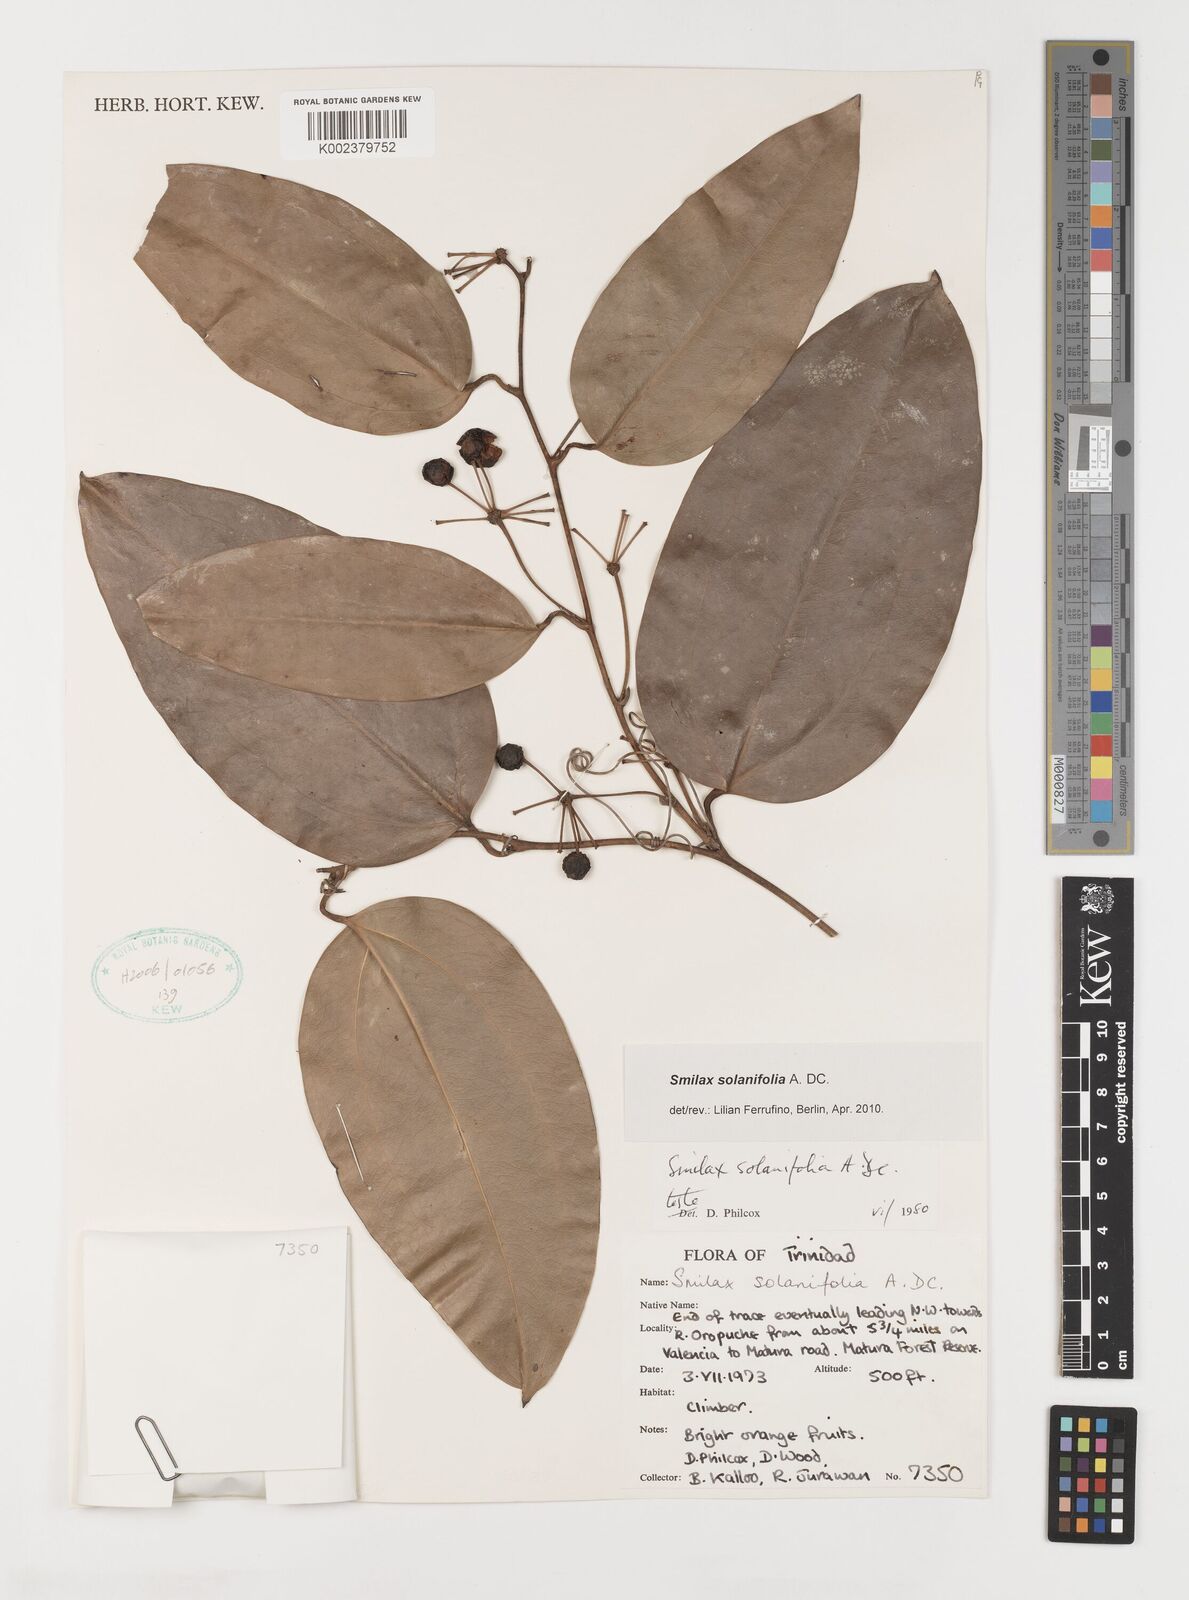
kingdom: Plantae
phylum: Tracheophyta
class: Liliopsida
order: Liliales
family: Smilacaceae
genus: Smilax
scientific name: Smilax solanifolia
